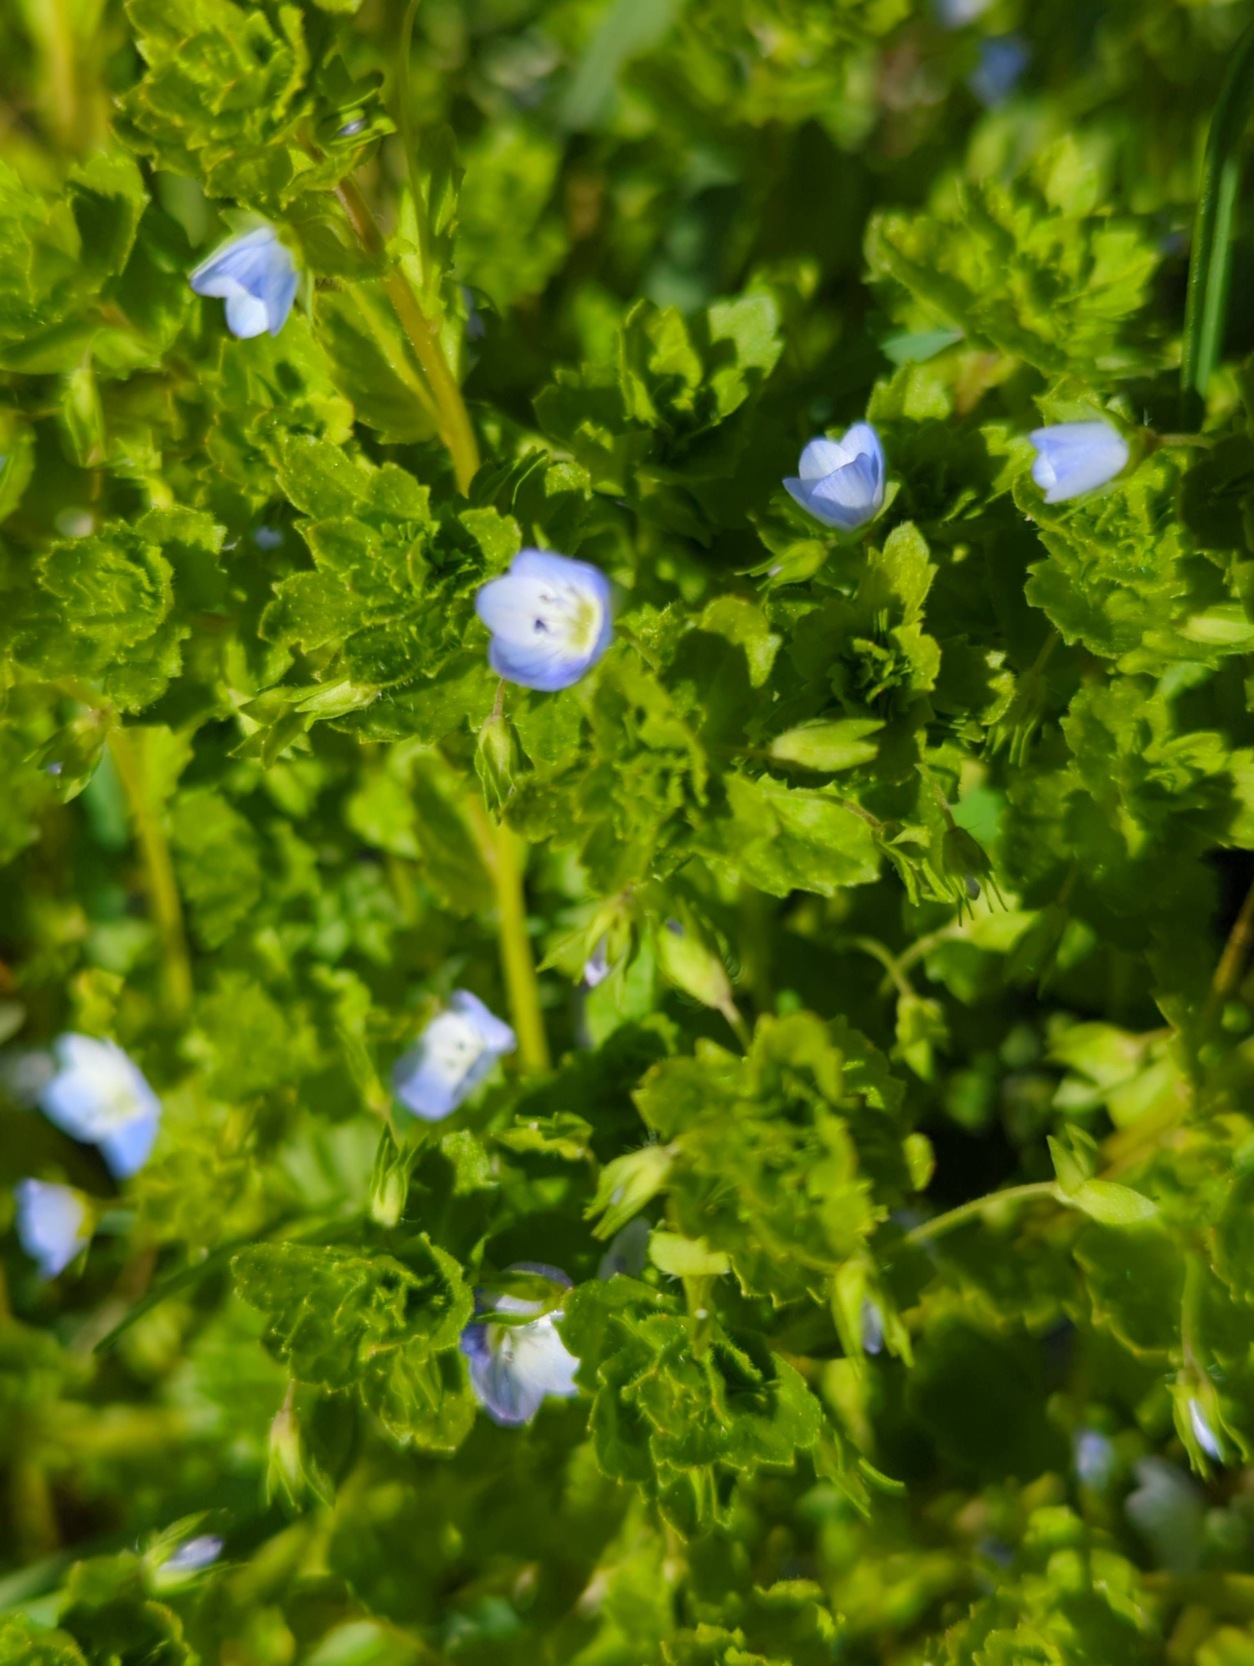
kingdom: Plantae
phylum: Tracheophyta
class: Magnoliopsida
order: Lamiales
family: Plantaginaceae
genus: Veronica
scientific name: Veronica persica
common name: Storkronet ærenpris
